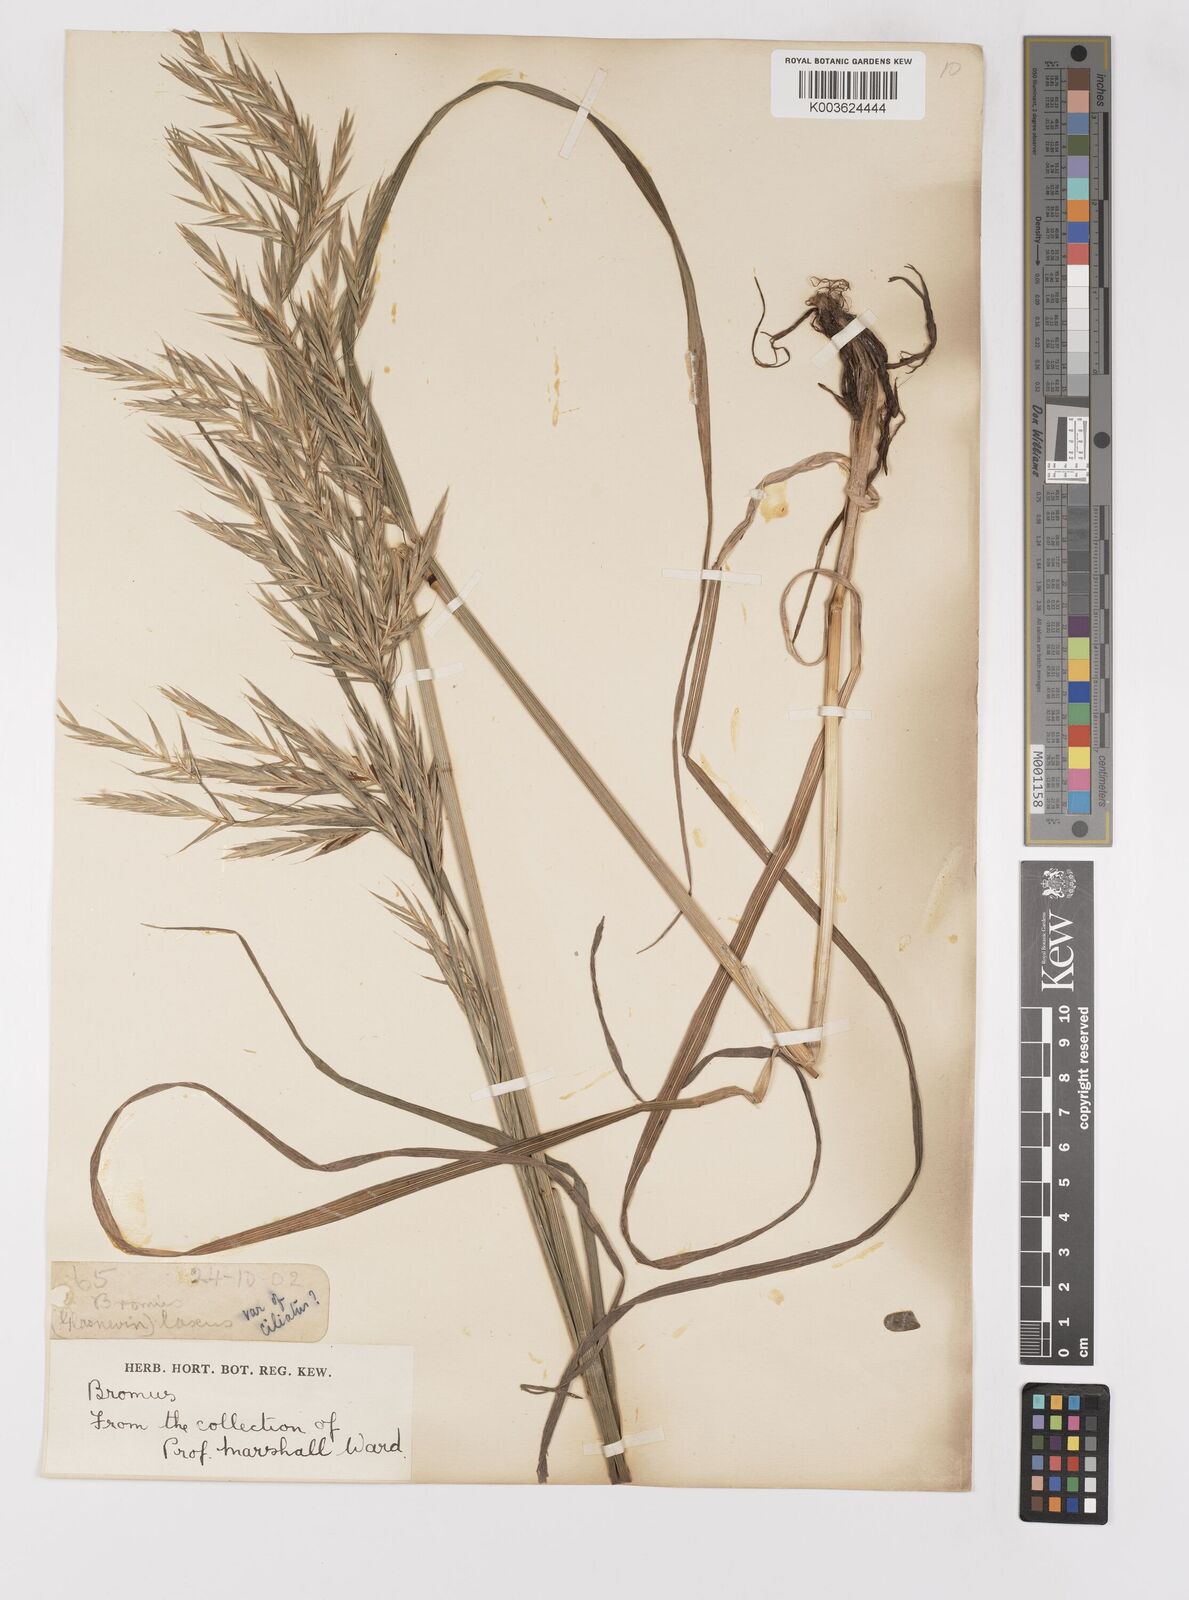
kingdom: Plantae
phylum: Tracheophyta
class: Liliopsida
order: Poales
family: Poaceae
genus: Bromus
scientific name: Bromus
